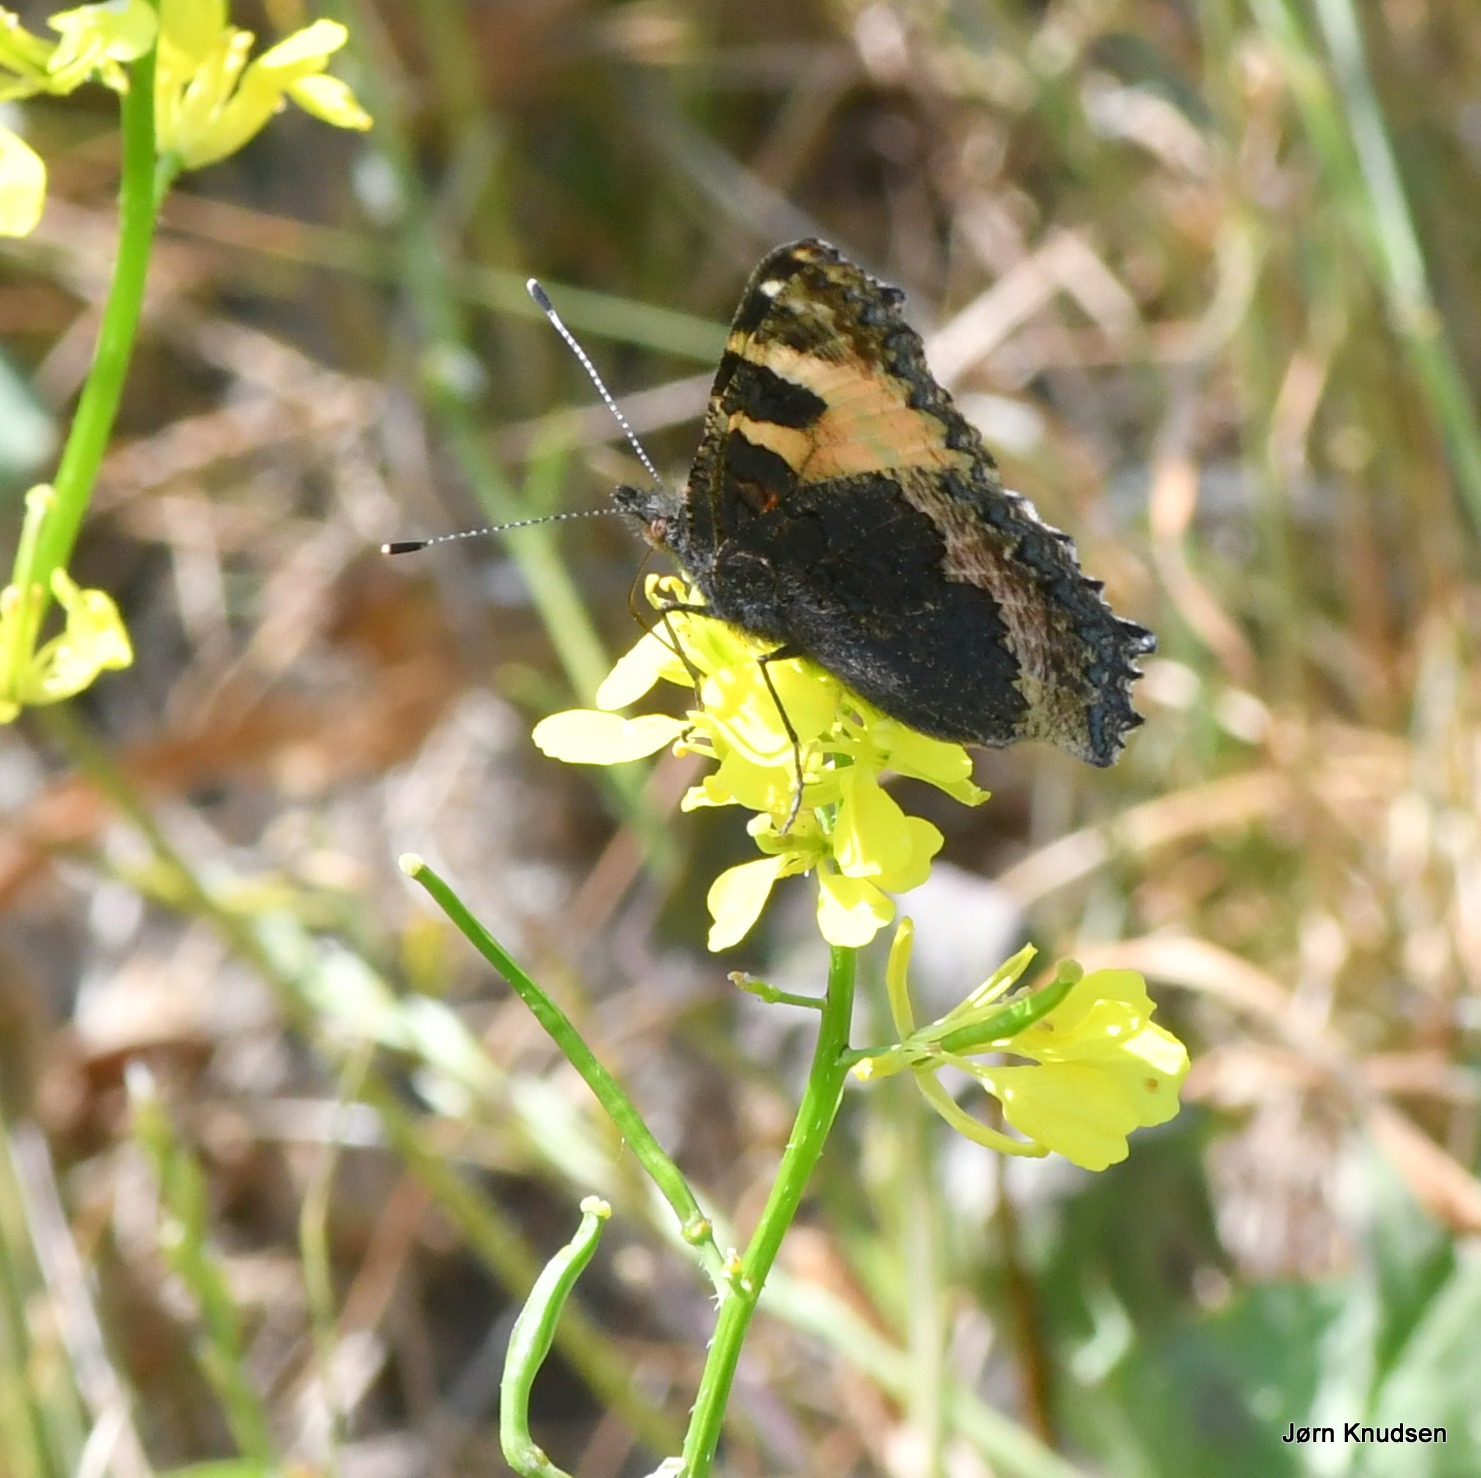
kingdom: Animalia
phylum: Arthropoda
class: Insecta
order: Lepidoptera
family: Nymphalidae
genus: Aglais
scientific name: Aglais urticae
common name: Nældens takvinge
